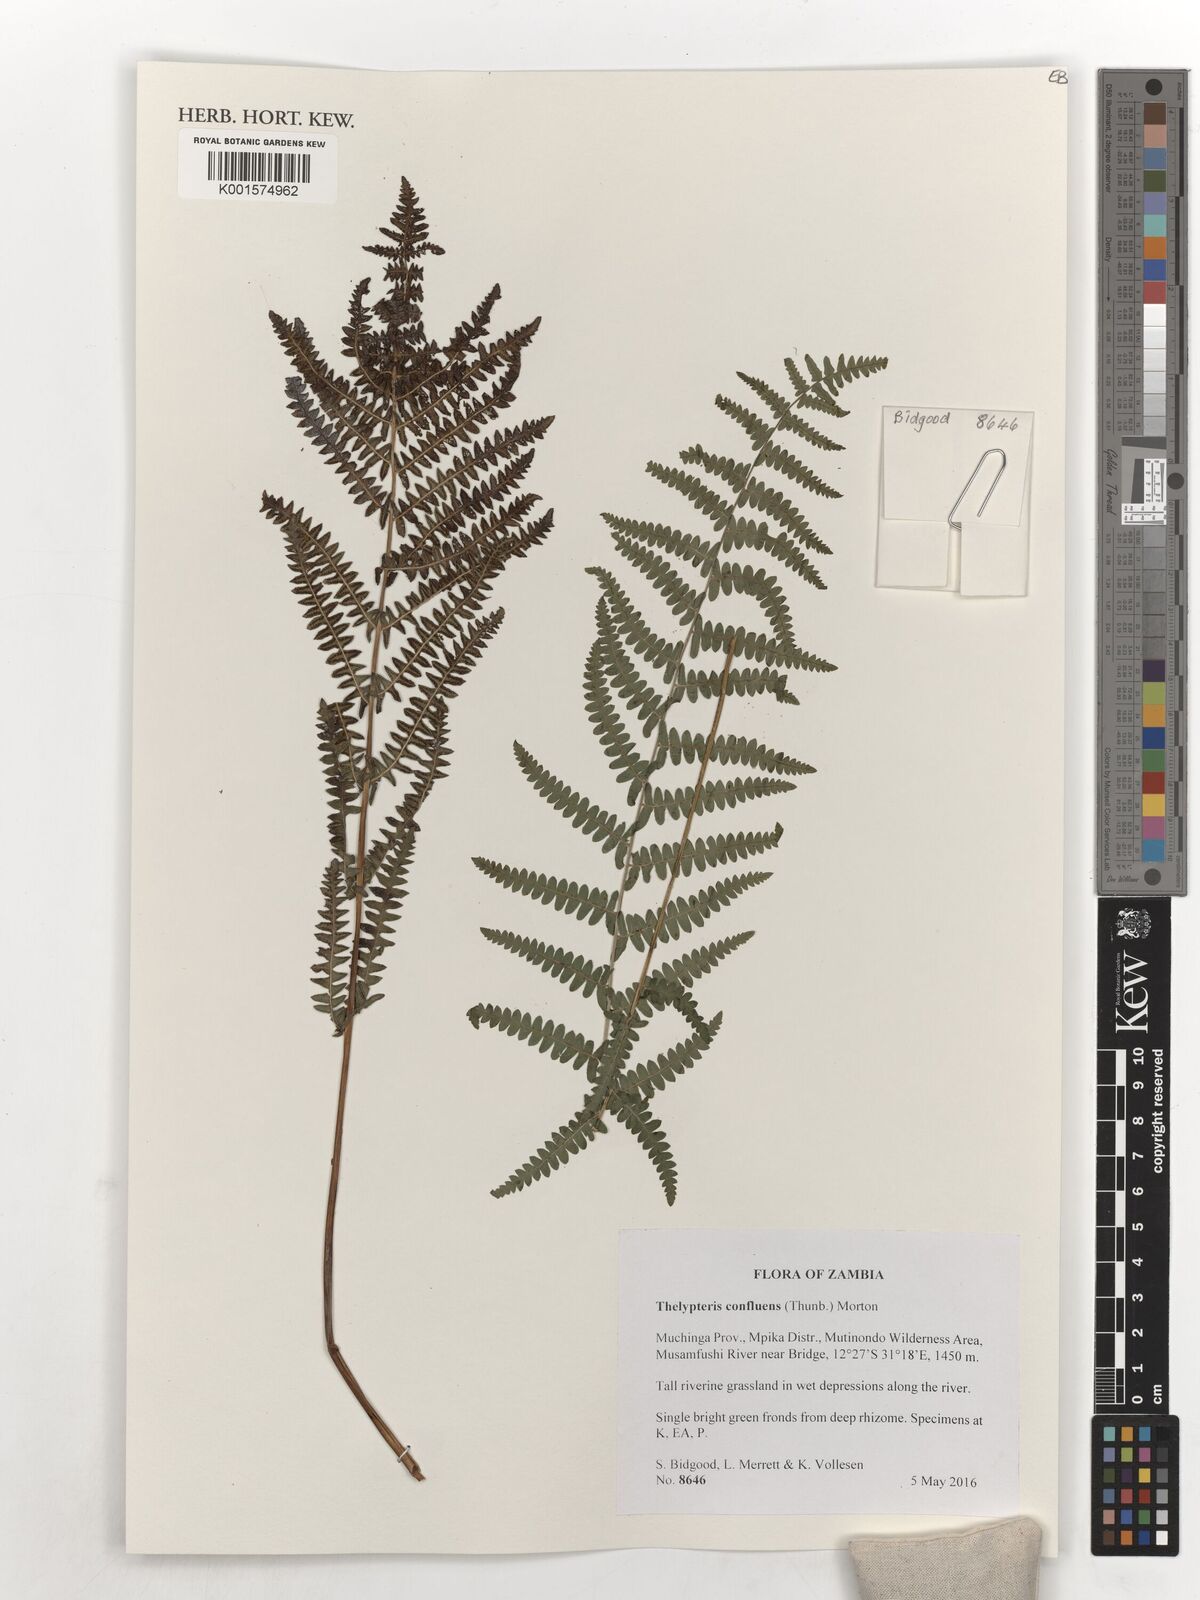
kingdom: Plantae
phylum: Tracheophyta
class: Polypodiopsida
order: Polypodiales
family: Thelypteridaceae
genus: Thelypteris
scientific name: Thelypteris confluens
